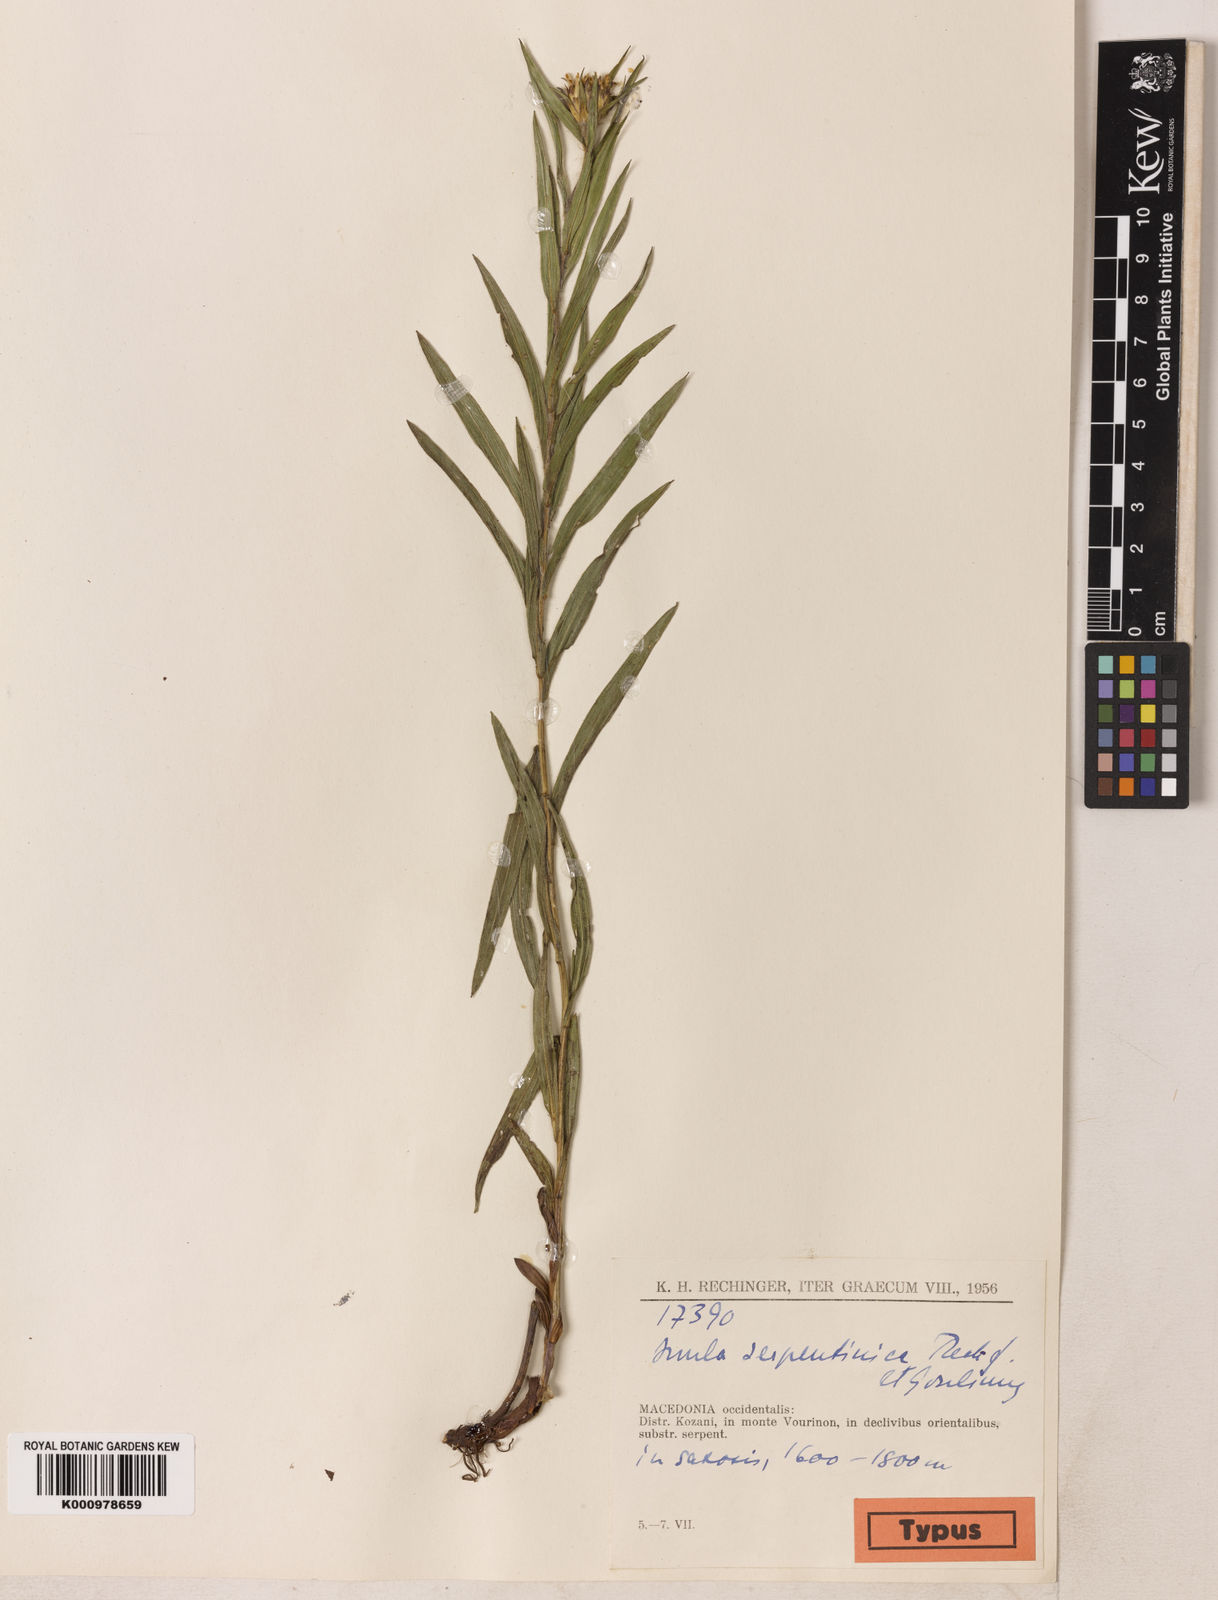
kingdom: Plantae
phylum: Tracheophyta
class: Magnoliopsida
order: Asterales
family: Asteraceae
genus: Pentanema
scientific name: Pentanema ensifolium
